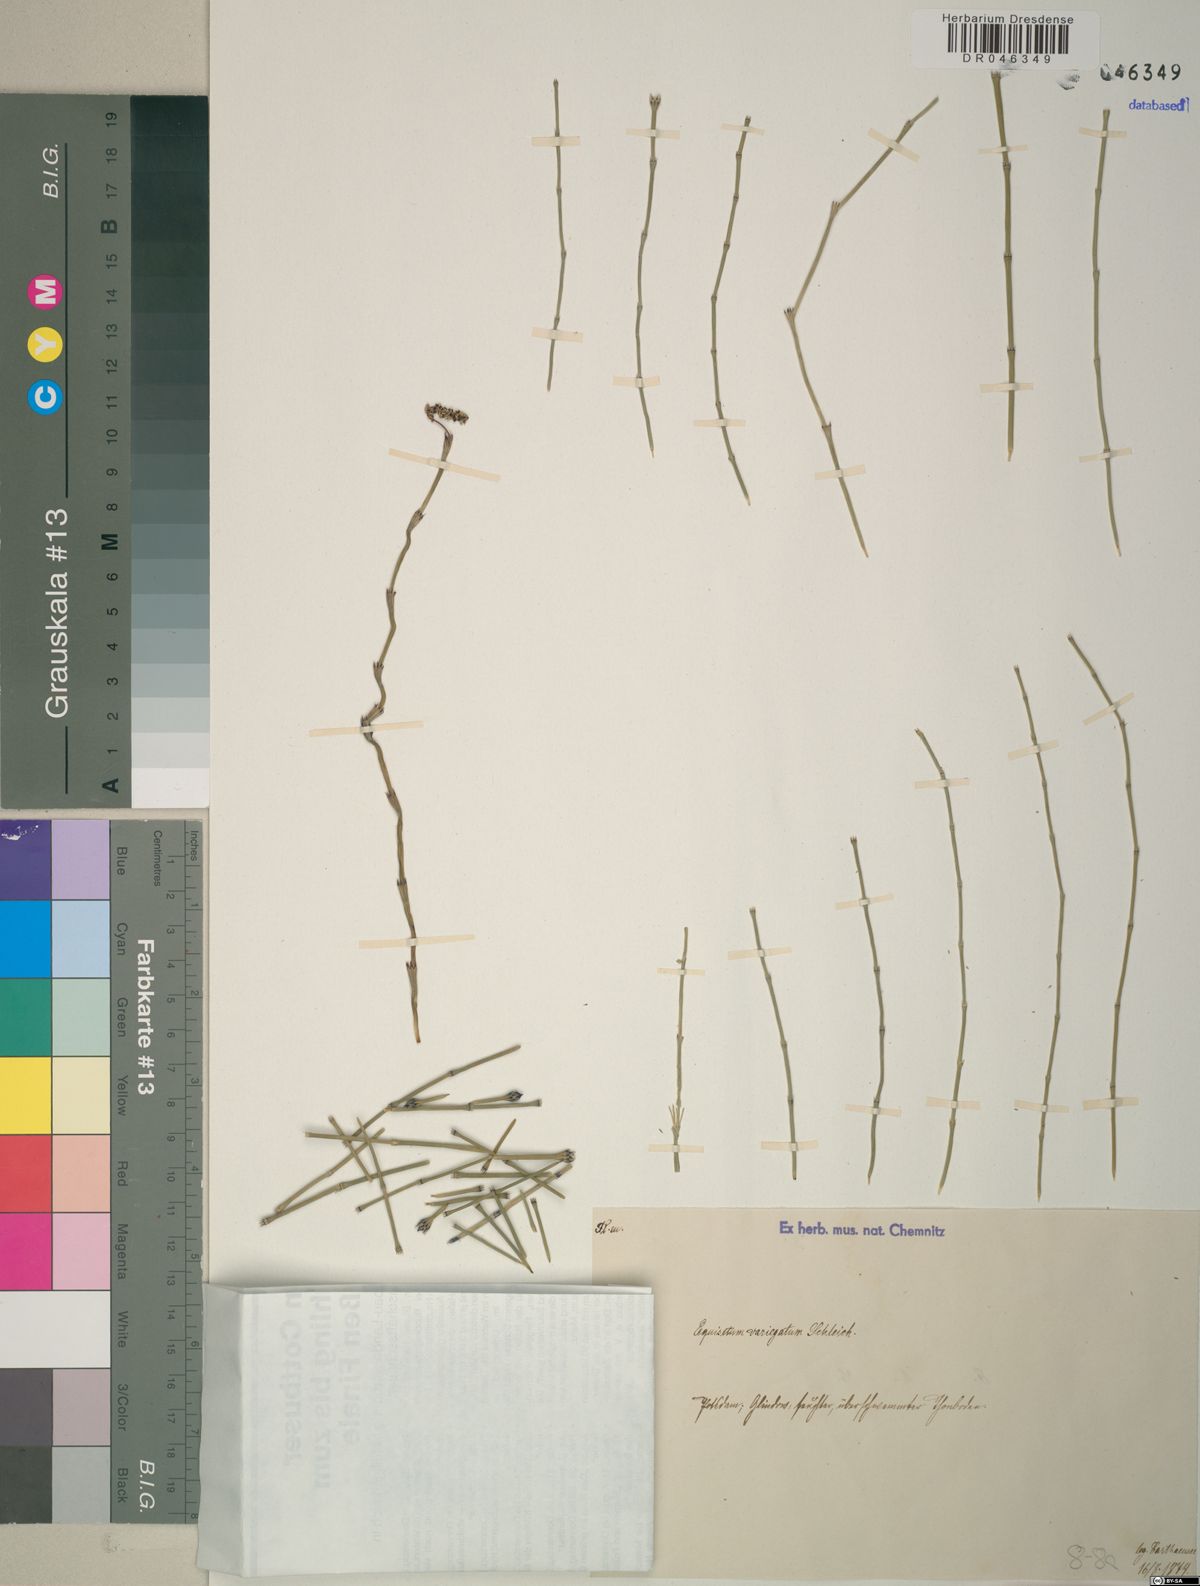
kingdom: Plantae
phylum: Tracheophyta
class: Polypodiopsida
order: Equisetales
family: Equisetaceae
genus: Equisetum
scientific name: Equisetum variegatum
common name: Variegated horsetail
